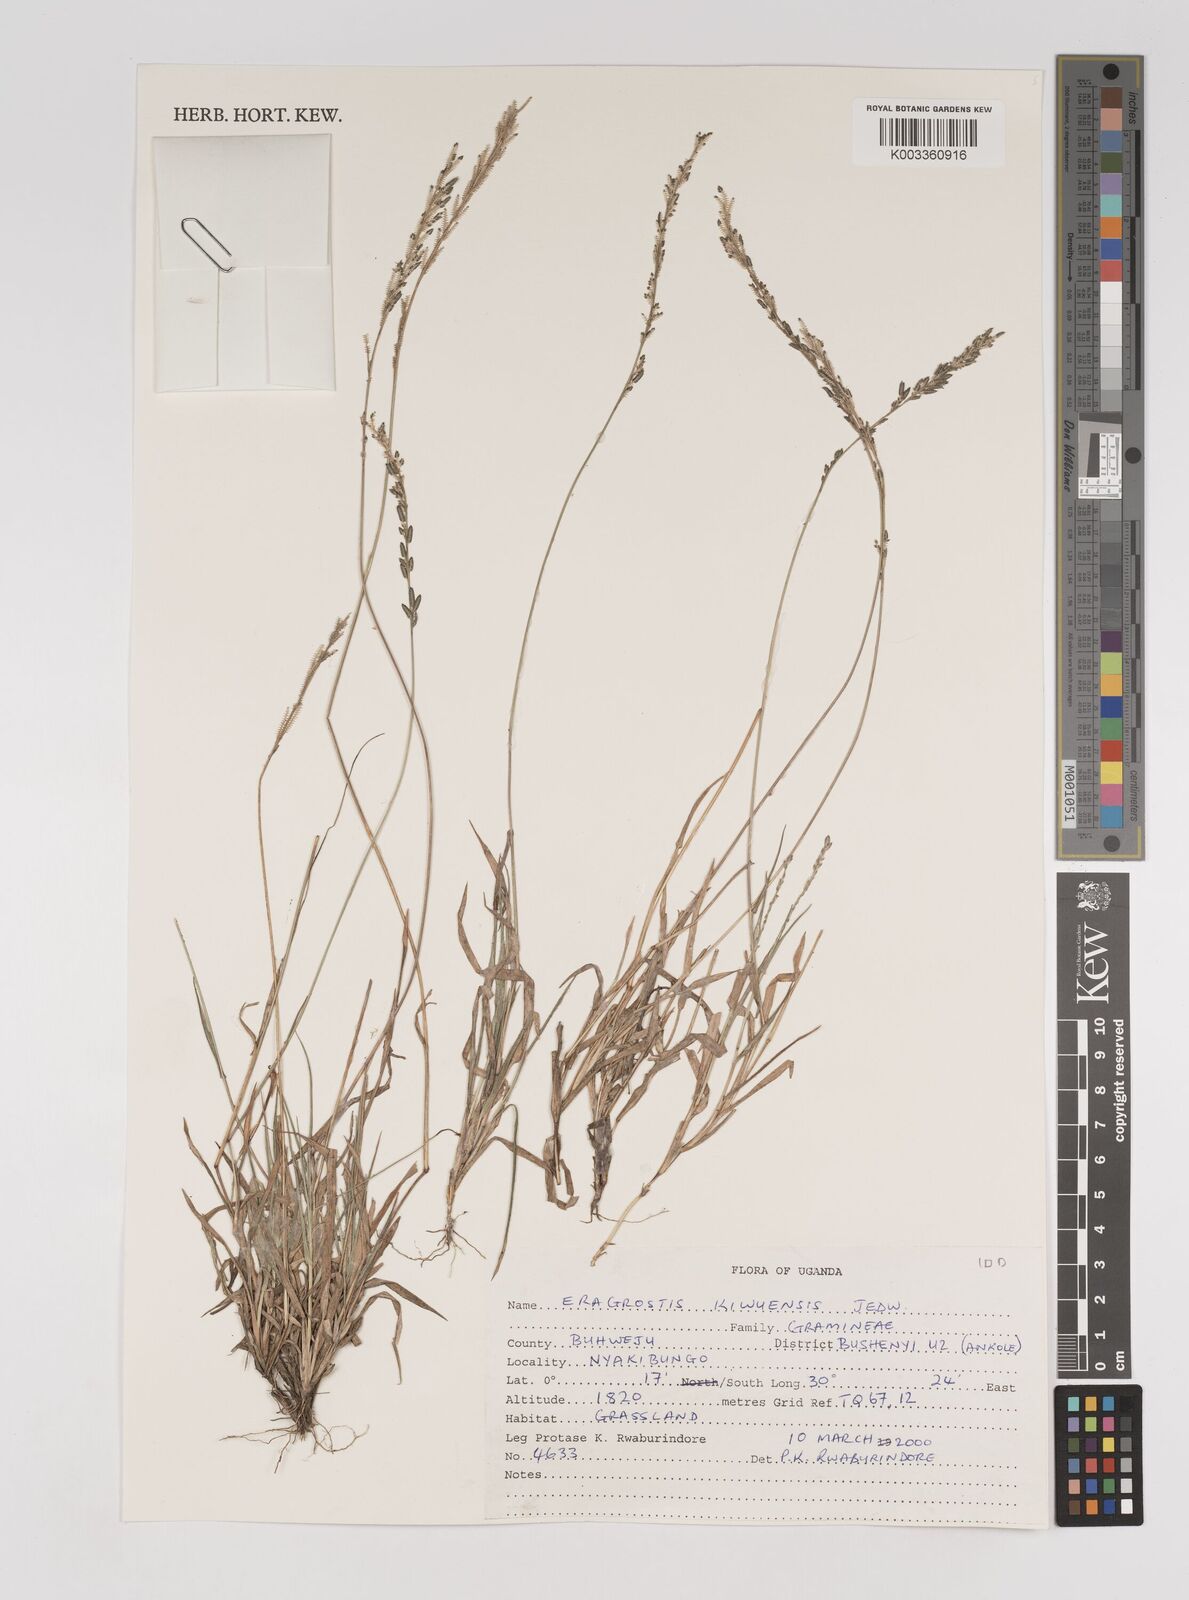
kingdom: Plantae
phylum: Tracheophyta
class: Liliopsida
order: Poales
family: Poaceae
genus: Eragrostis
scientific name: Eragrostis schweinfurthii
